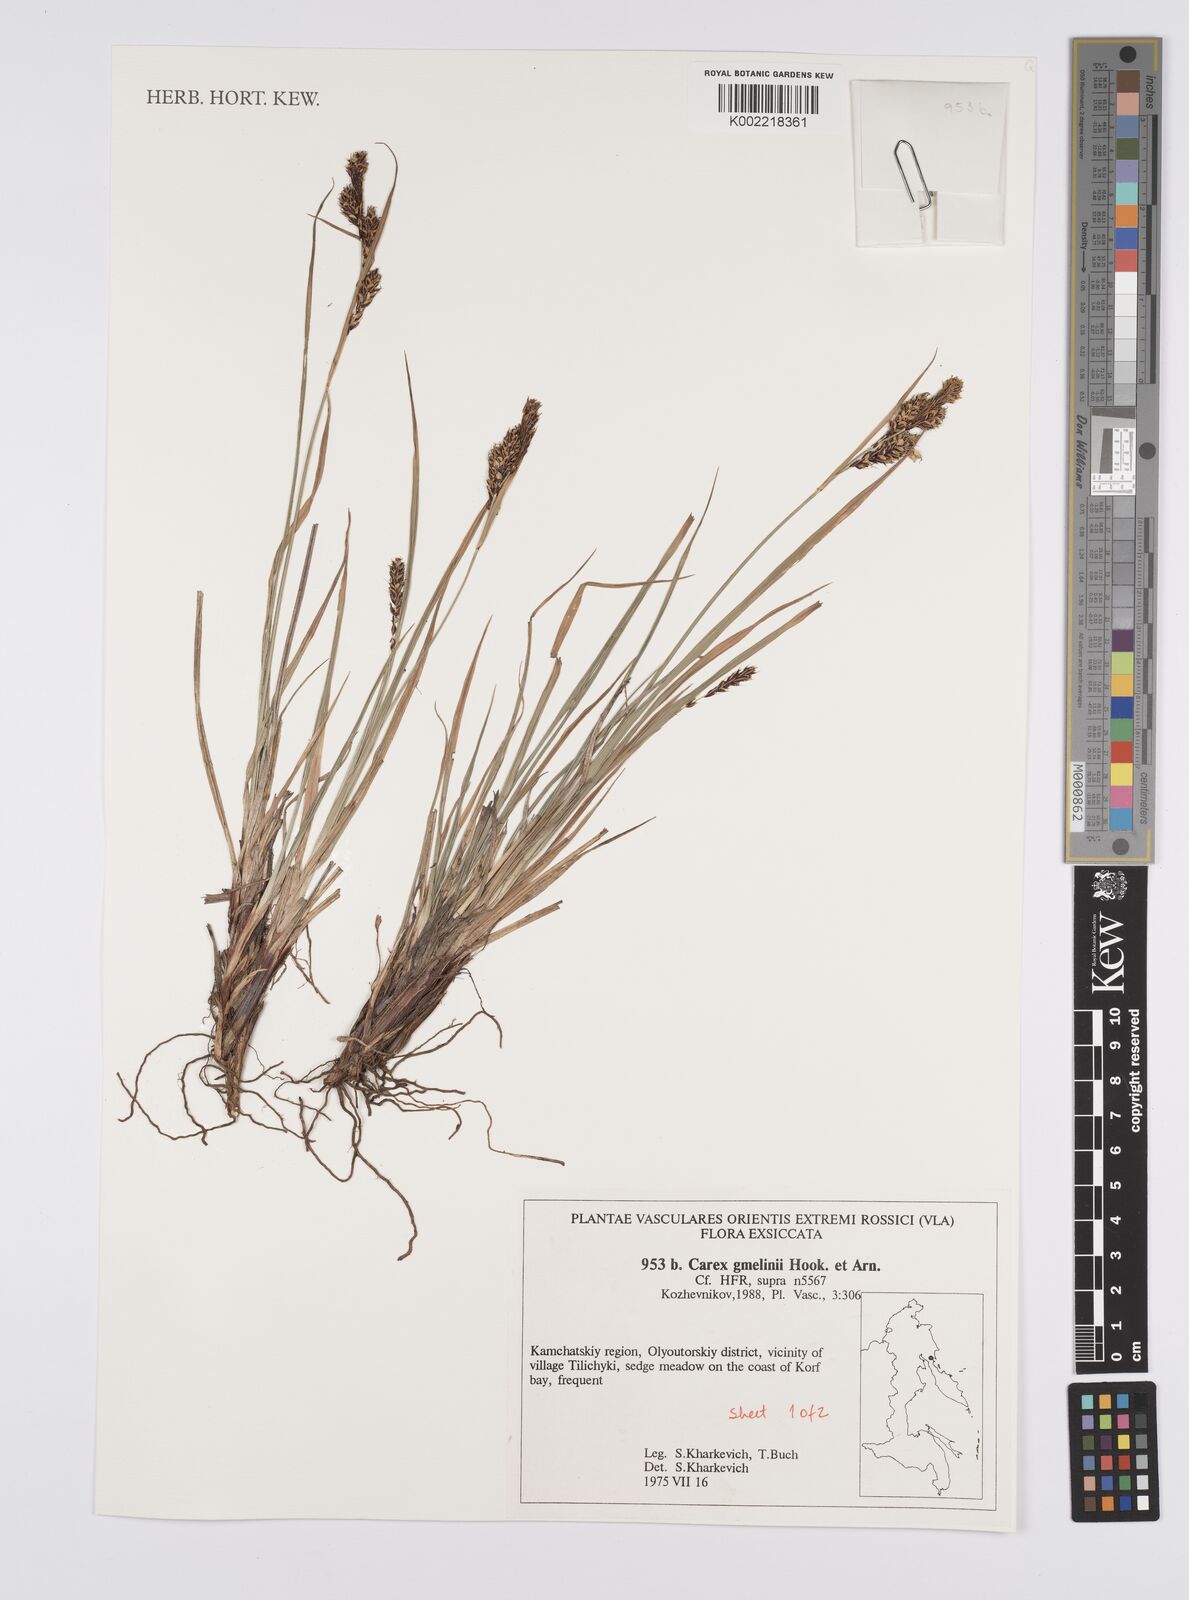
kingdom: Plantae
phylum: Tracheophyta
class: Liliopsida
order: Poales
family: Cyperaceae
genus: Carex
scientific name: Carex gmelinii
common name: Gmelin's sedge
